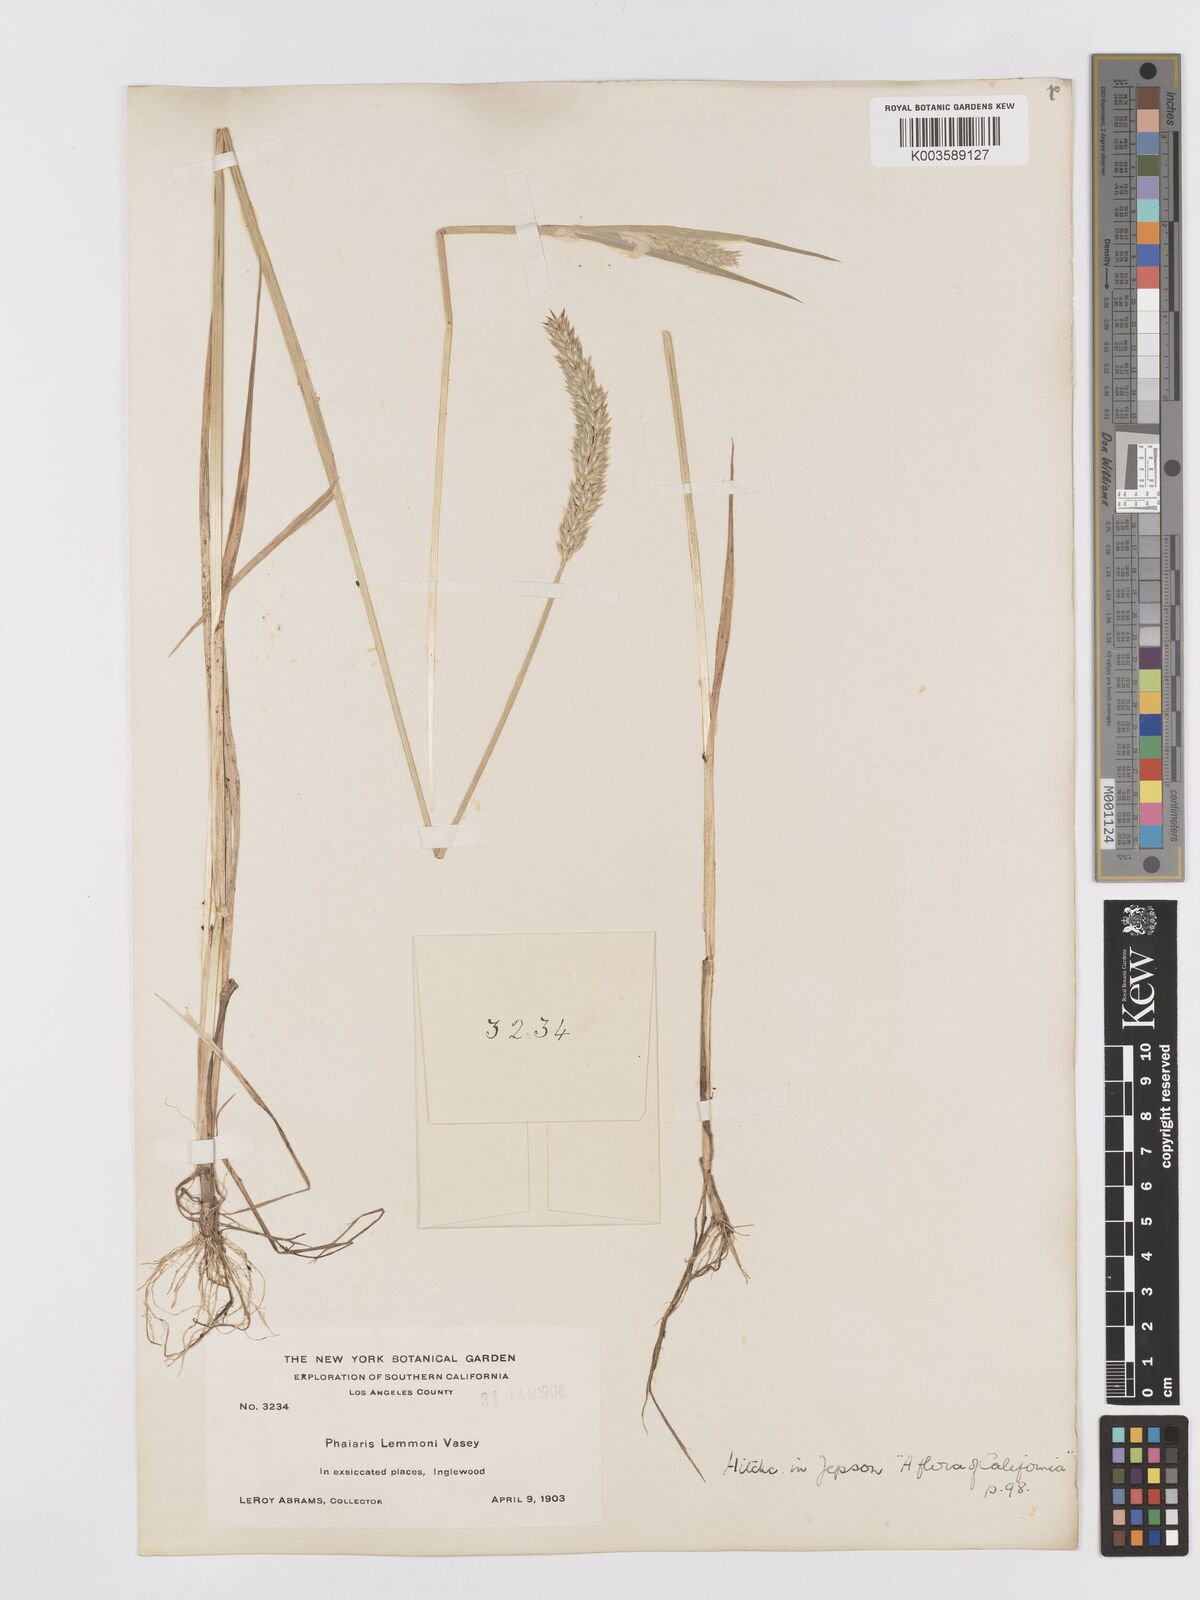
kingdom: Plantae
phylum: Tracheophyta
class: Liliopsida
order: Poales
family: Poaceae
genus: Phalaris
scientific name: Phalaris lemmonii
